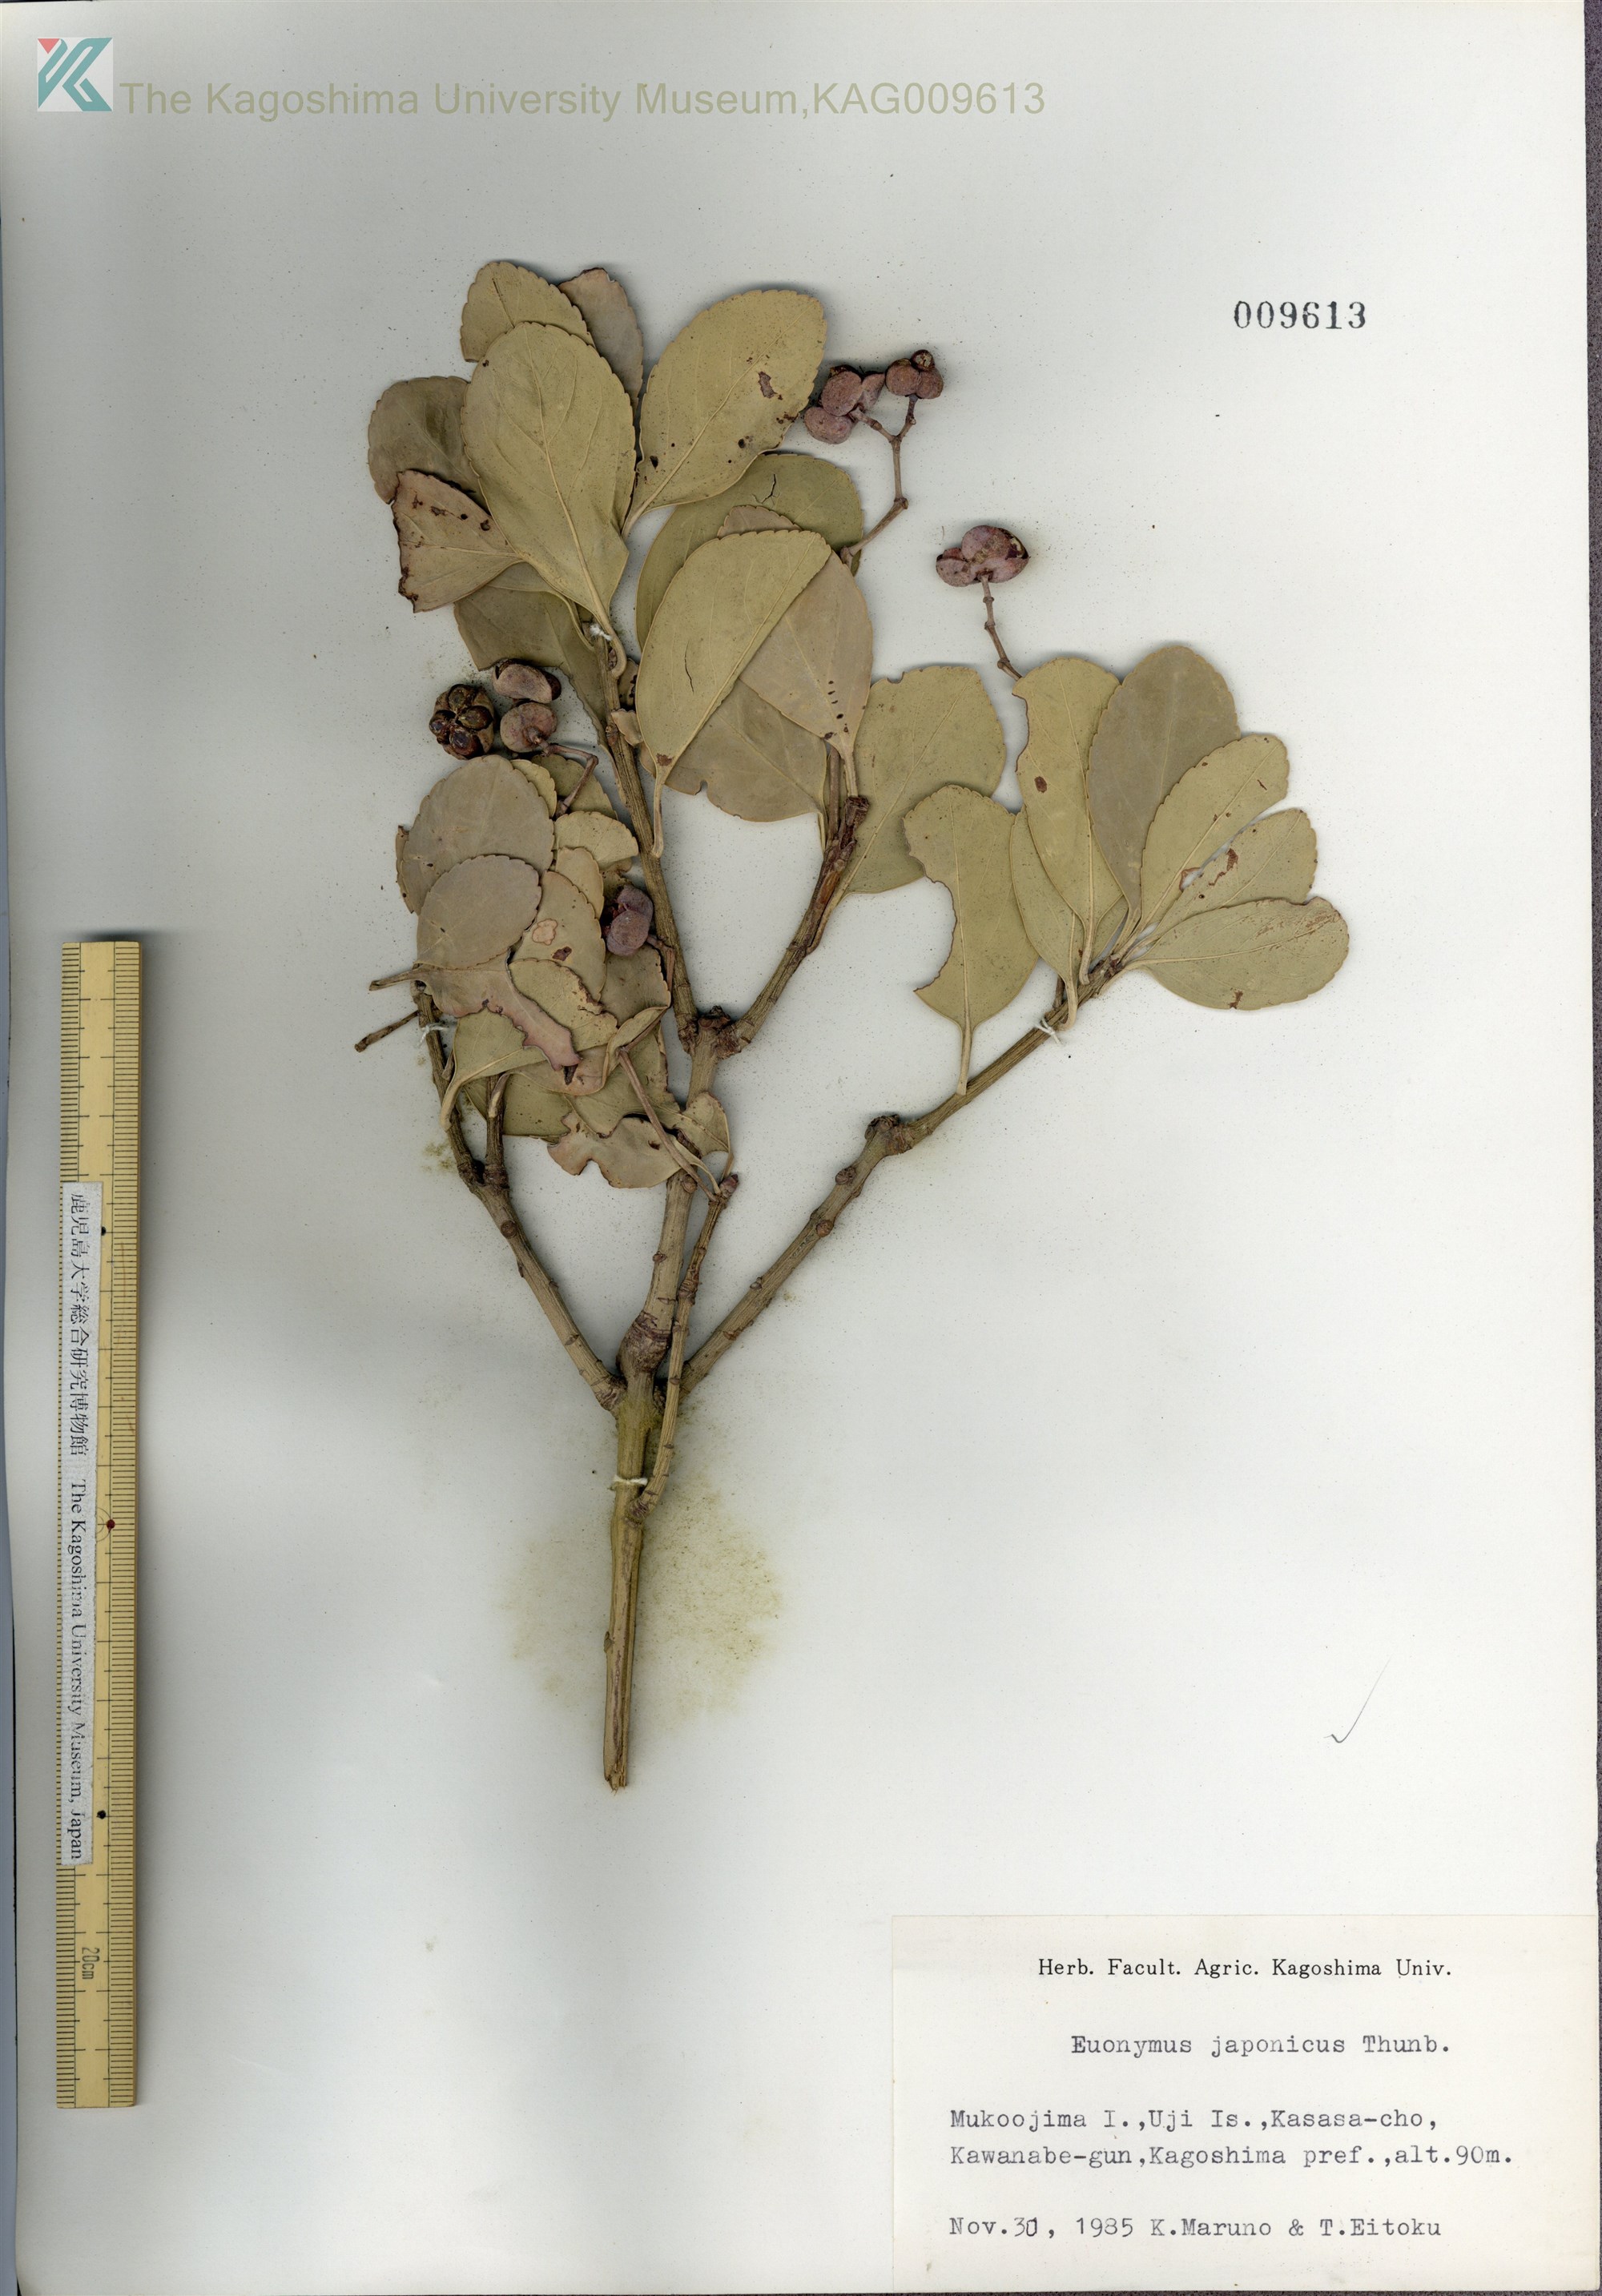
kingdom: Plantae
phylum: Tracheophyta
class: Magnoliopsida
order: Celastrales
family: Celastraceae
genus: Euonymus
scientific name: Euonymus japonicus
